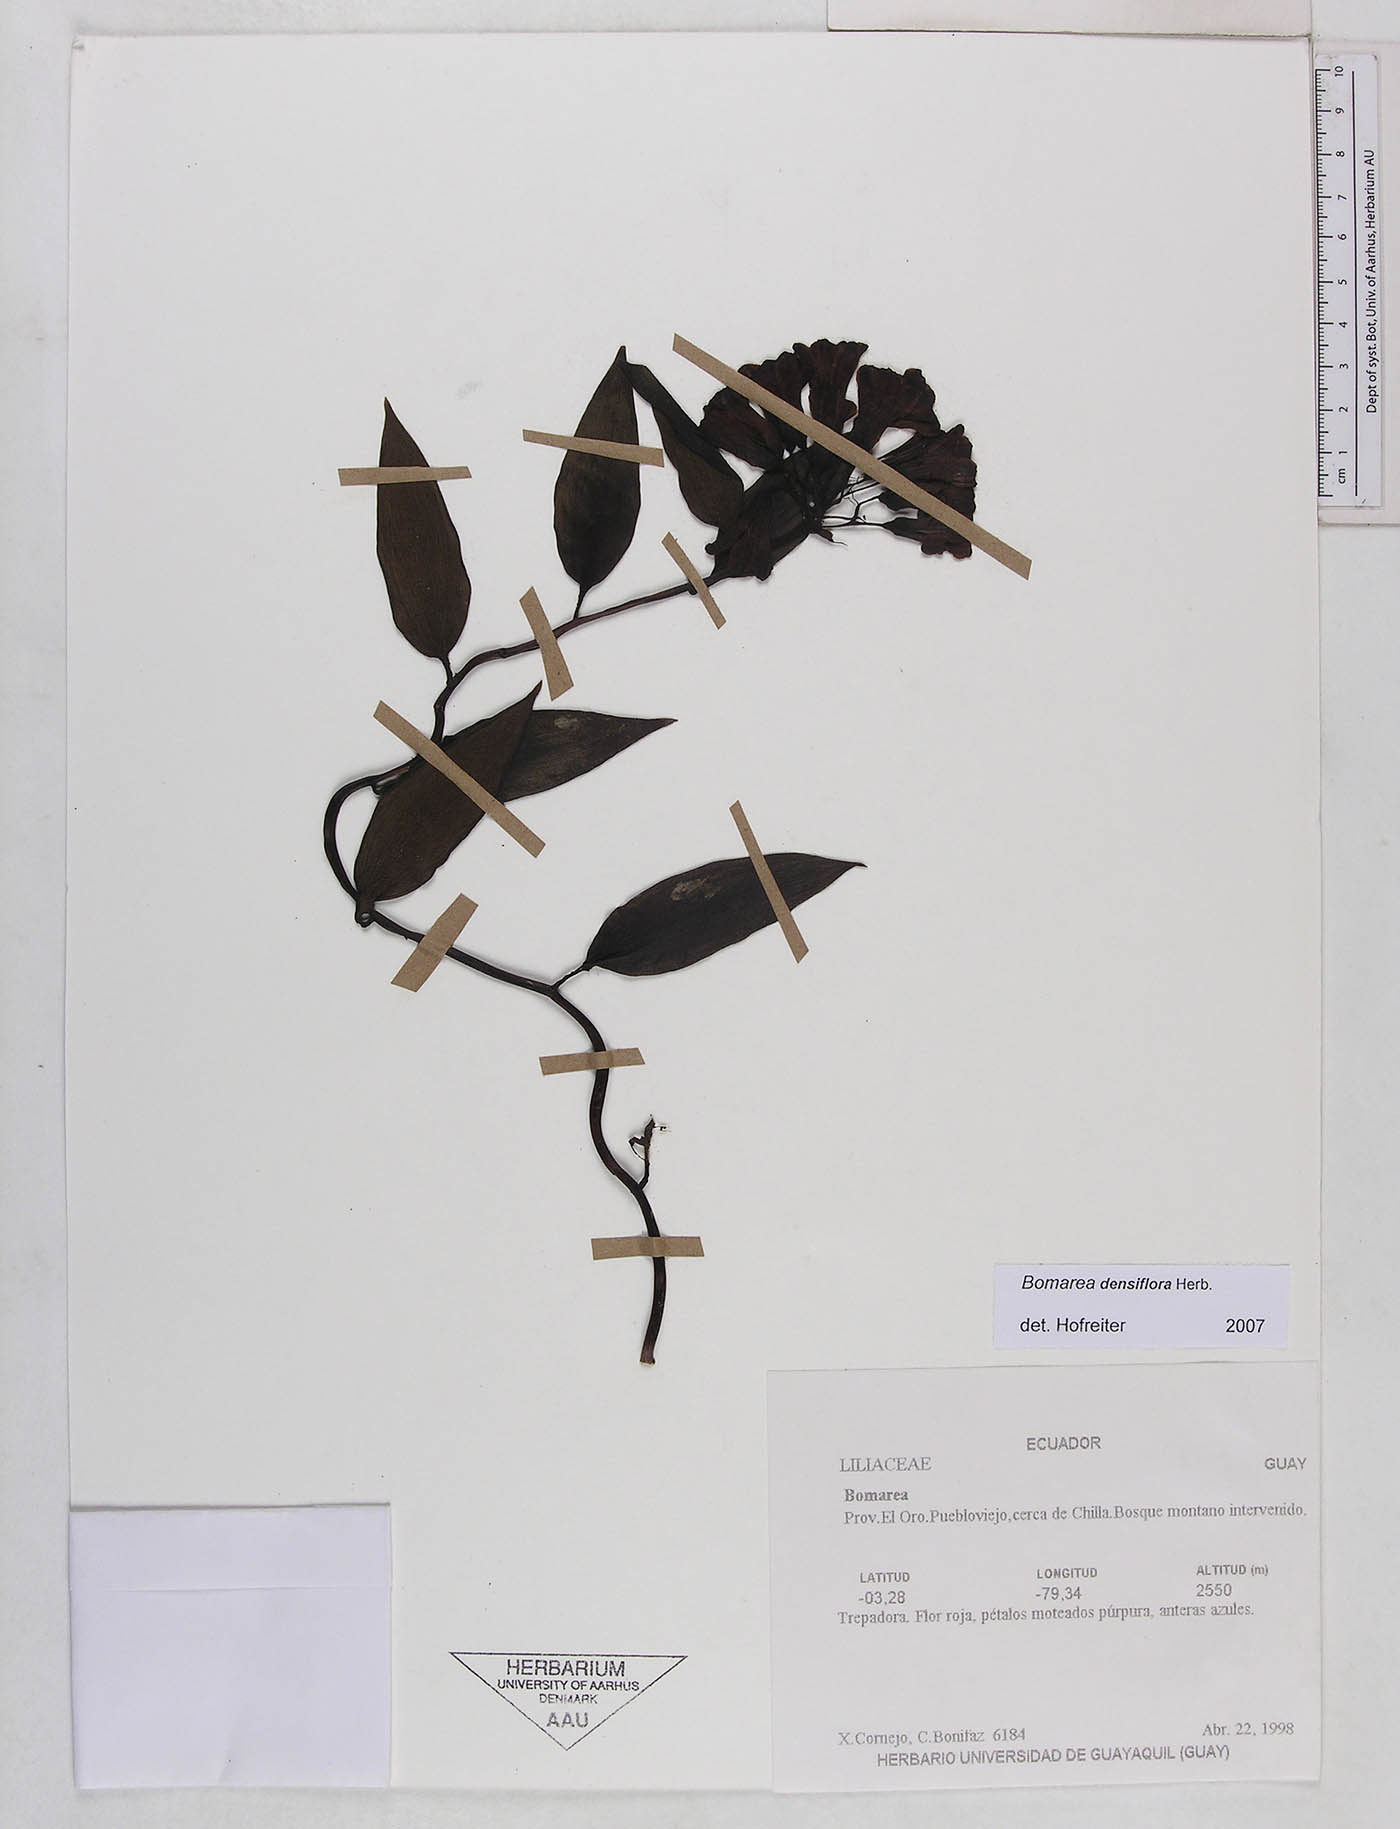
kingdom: Plantae
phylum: Tracheophyta
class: Liliopsida
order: Liliales
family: Alstroemeriaceae
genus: Bomarea
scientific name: Bomarea densiflora
